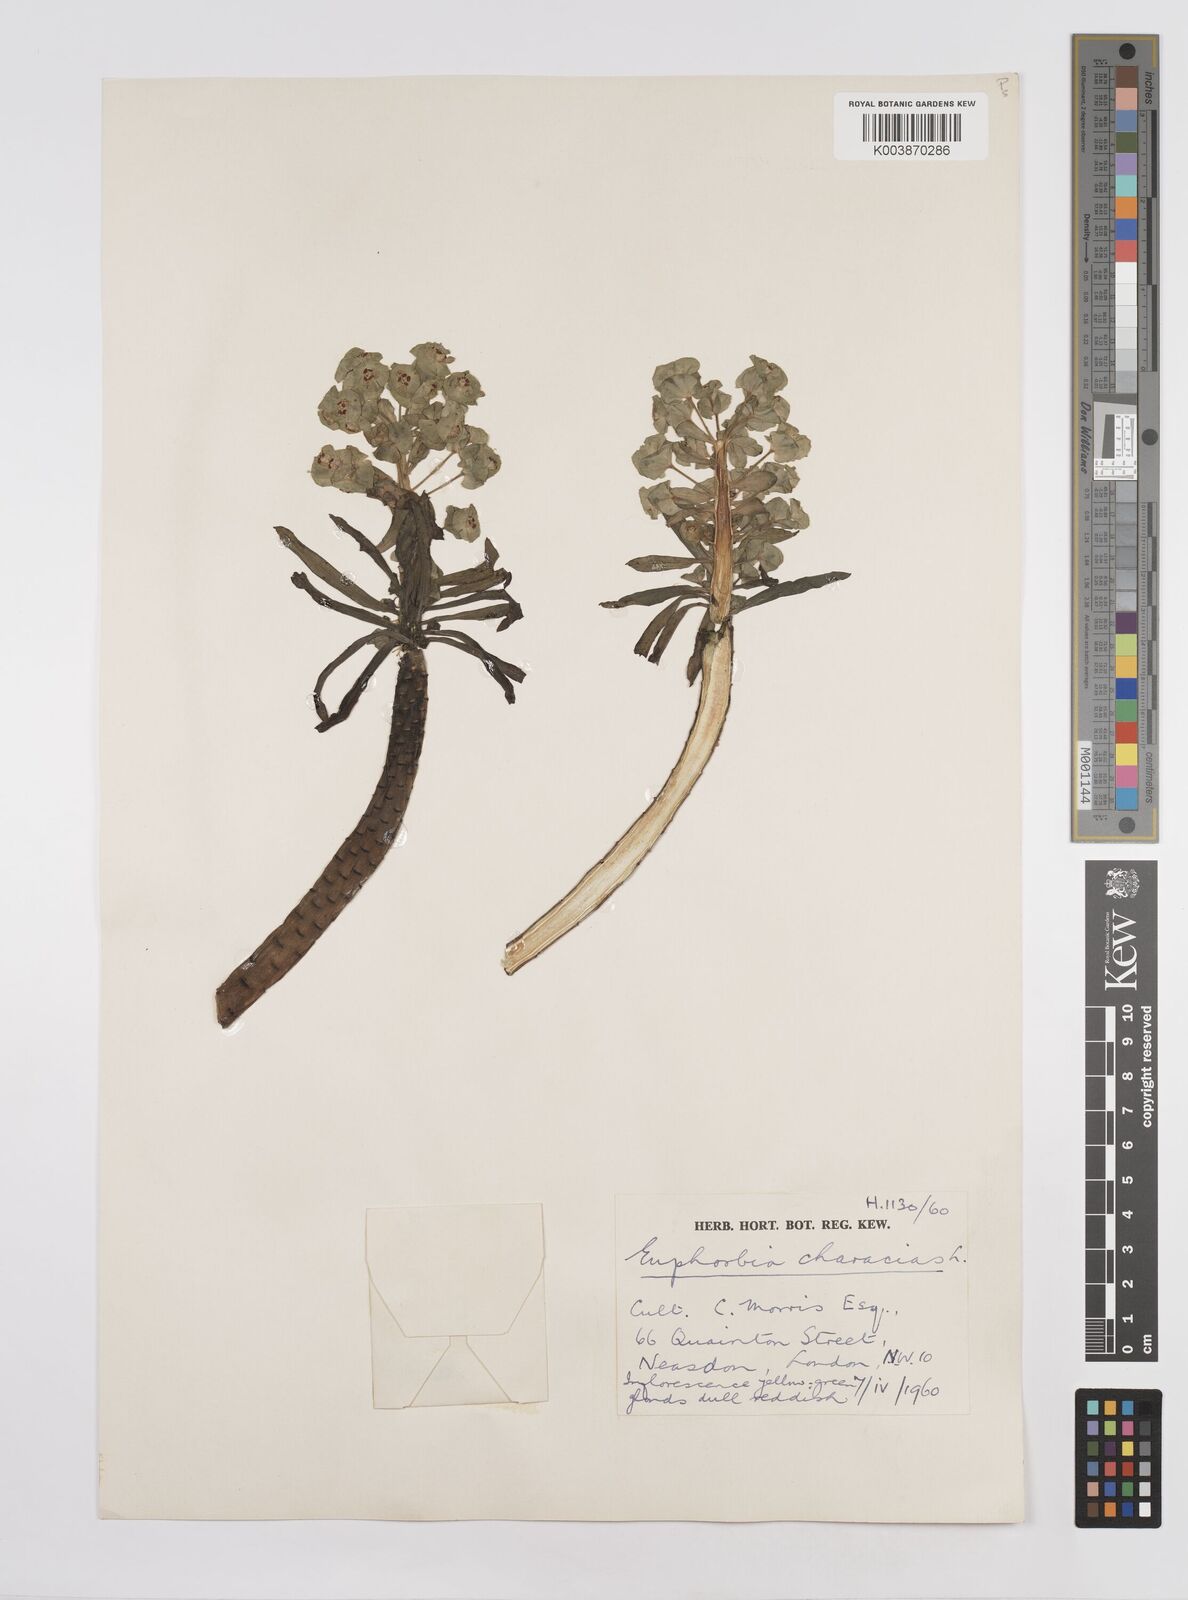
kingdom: Plantae
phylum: Tracheophyta
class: Magnoliopsida
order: Malpighiales
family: Euphorbiaceae
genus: Euphorbia
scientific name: Euphorbia characias
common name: Mediterranean spurge
